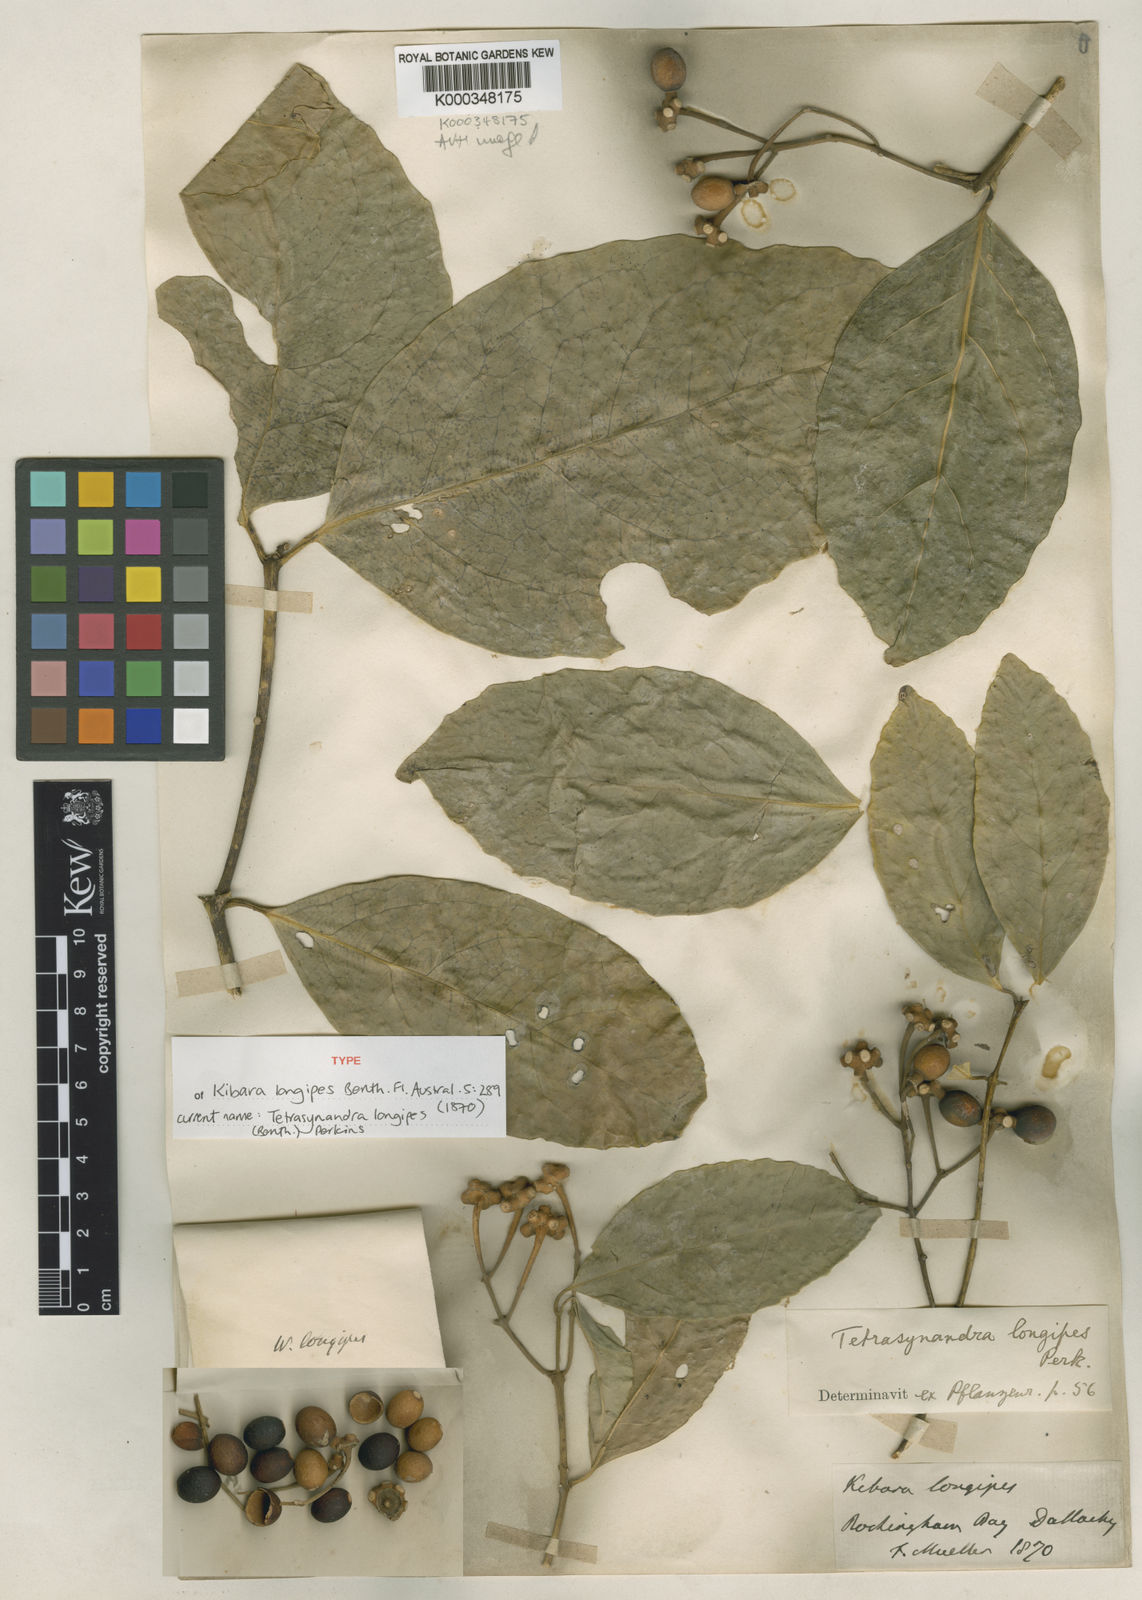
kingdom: Plantae
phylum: Tracheophyta
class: Magnoliopsida
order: Laurales
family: Monimiaceae
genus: Wilkiea
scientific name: Wilkiea longipes
